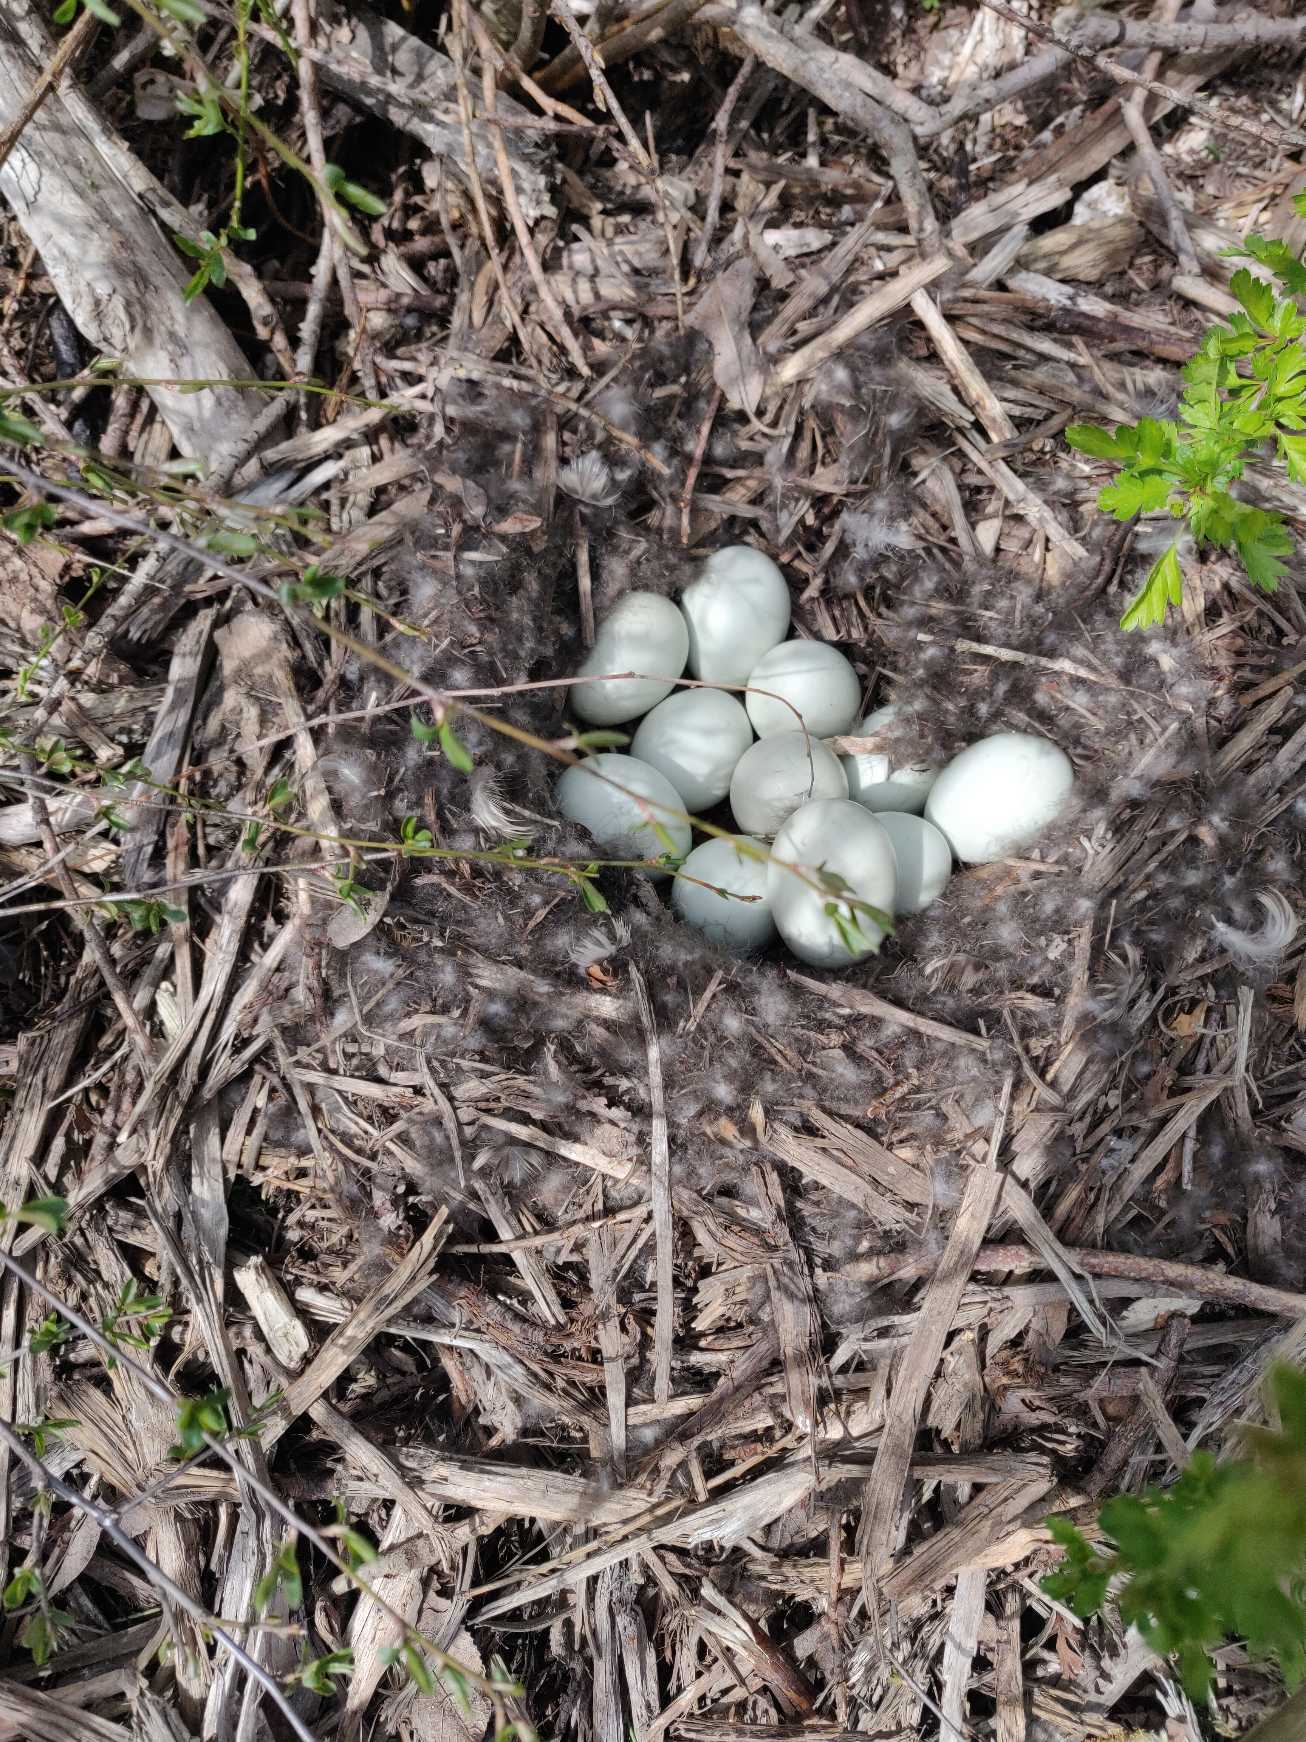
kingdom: Animalia
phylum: Chordata
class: Aves
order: Anseriformes
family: Anatidae
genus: Anas
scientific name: Anas platyrhynchos
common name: Gråand
